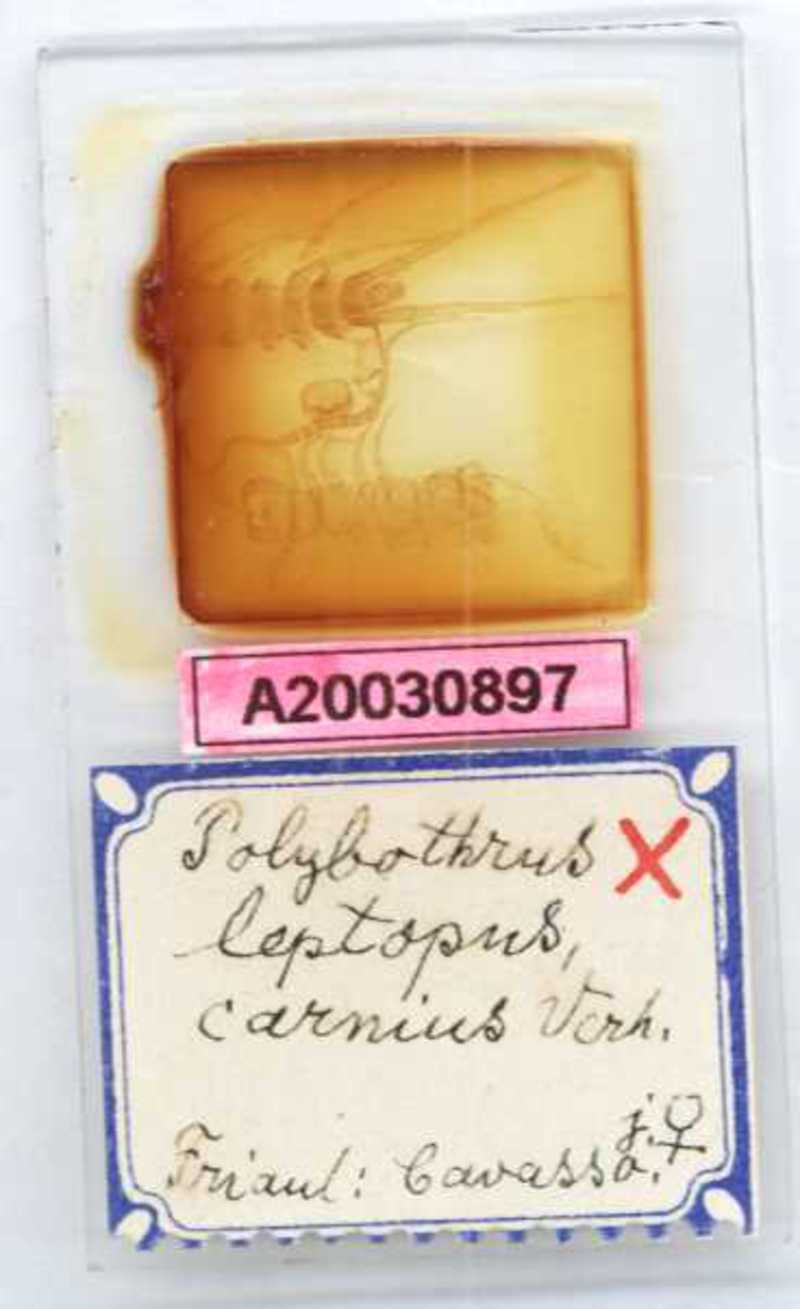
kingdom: Animalia
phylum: Arthropoda
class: Chilopoda
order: Lithobiomorpha
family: Lithobiidae
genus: Polybothrus
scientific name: Polybothrus leptopus
